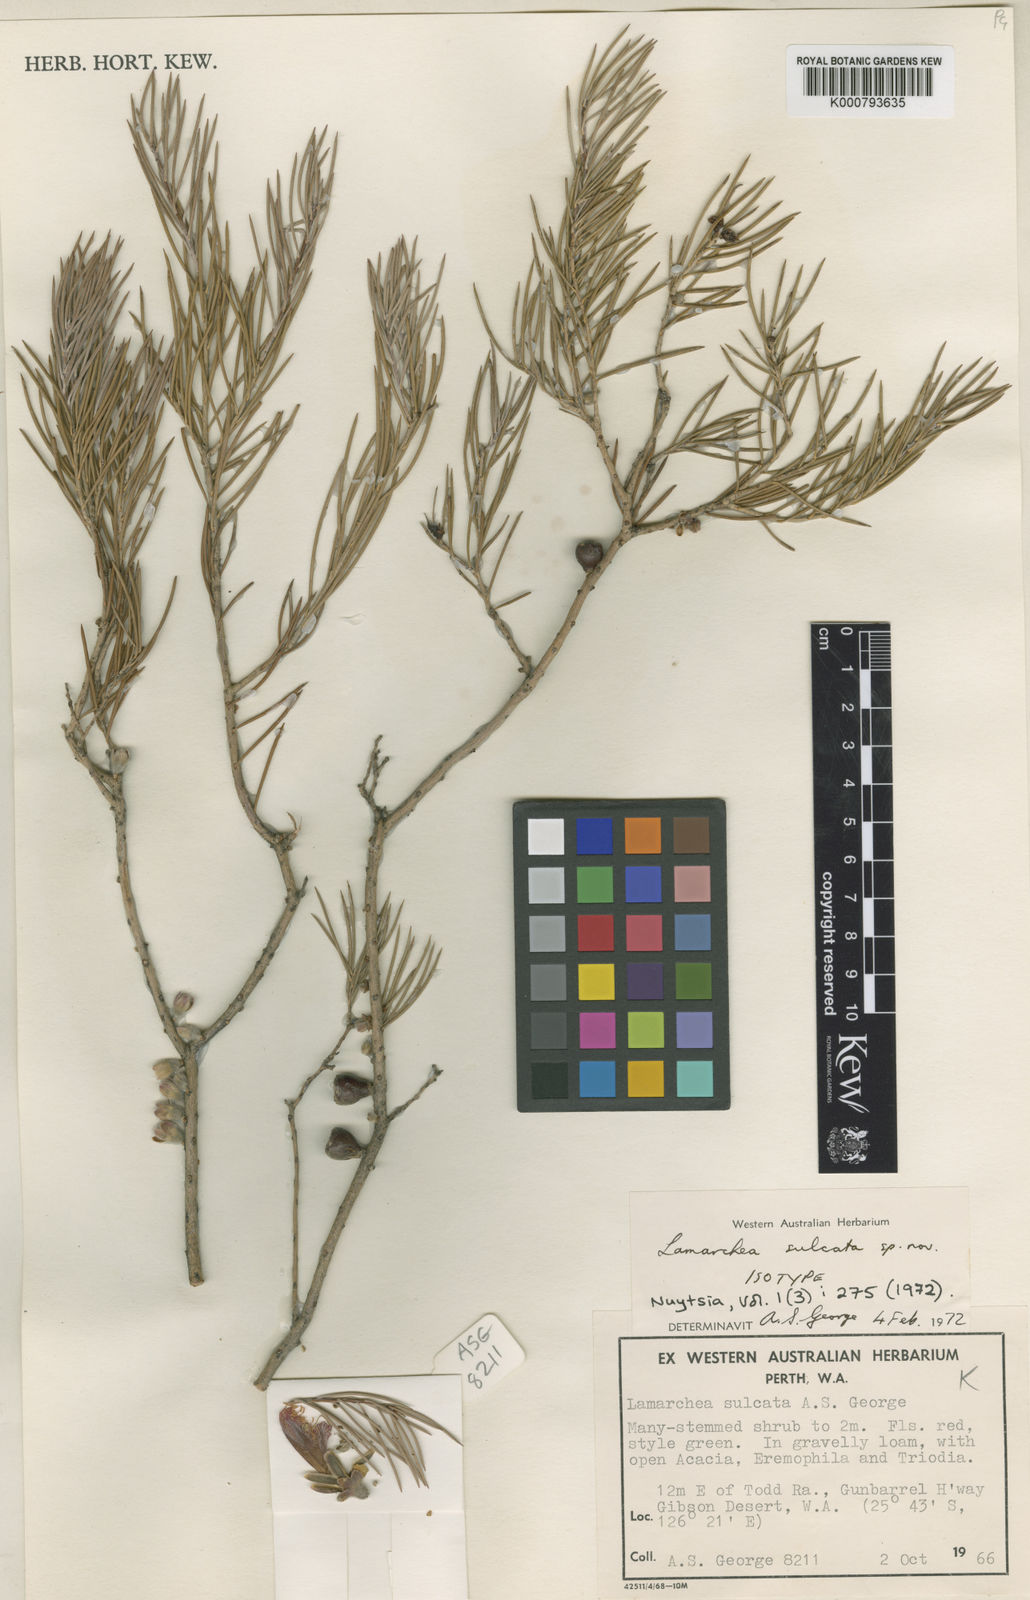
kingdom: Plantae
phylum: Tracheophyta
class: Magnoliopsida
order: Myrtales
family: Myrtaceae
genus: Melaleuca
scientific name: Melaleuca sulcata
